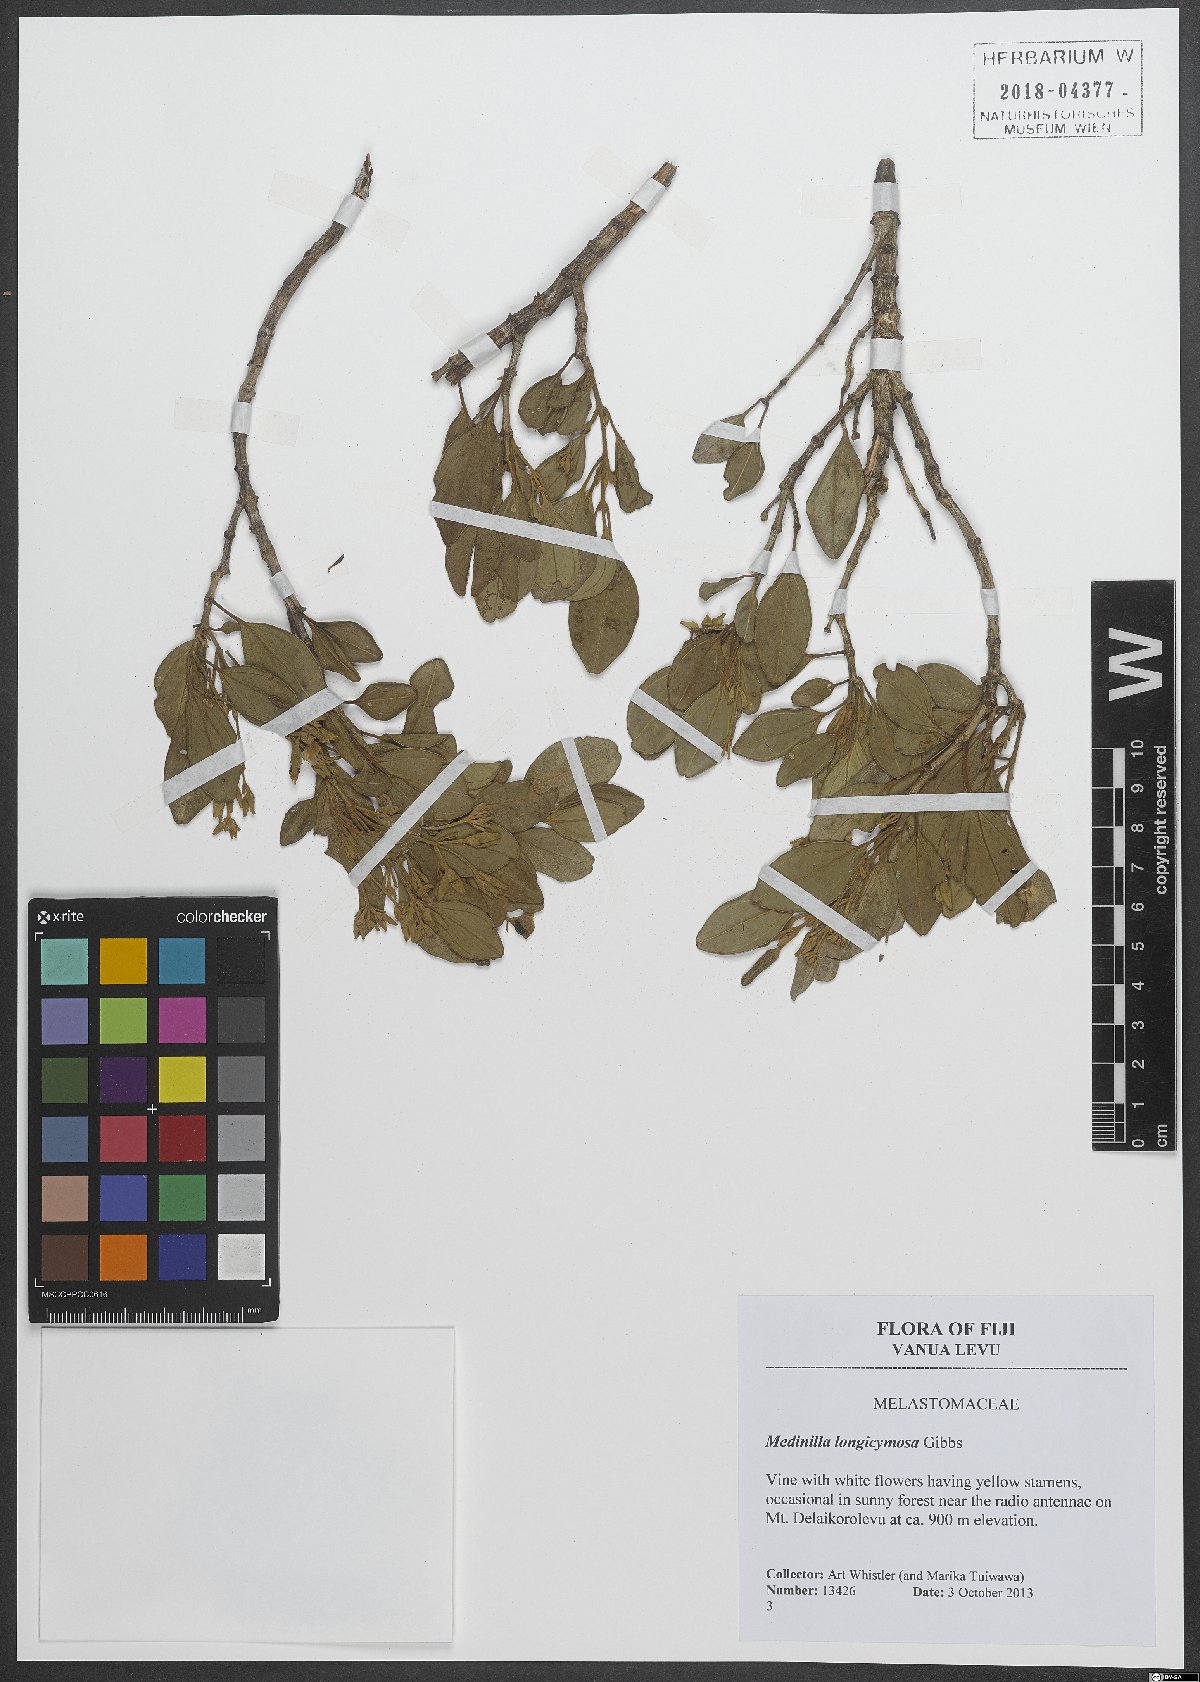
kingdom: Plantae
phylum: Tracheophyta
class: Magnoliopsida
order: Myrtales
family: Melastomataceae
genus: Medinilla
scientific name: Medinilla longicymosa
